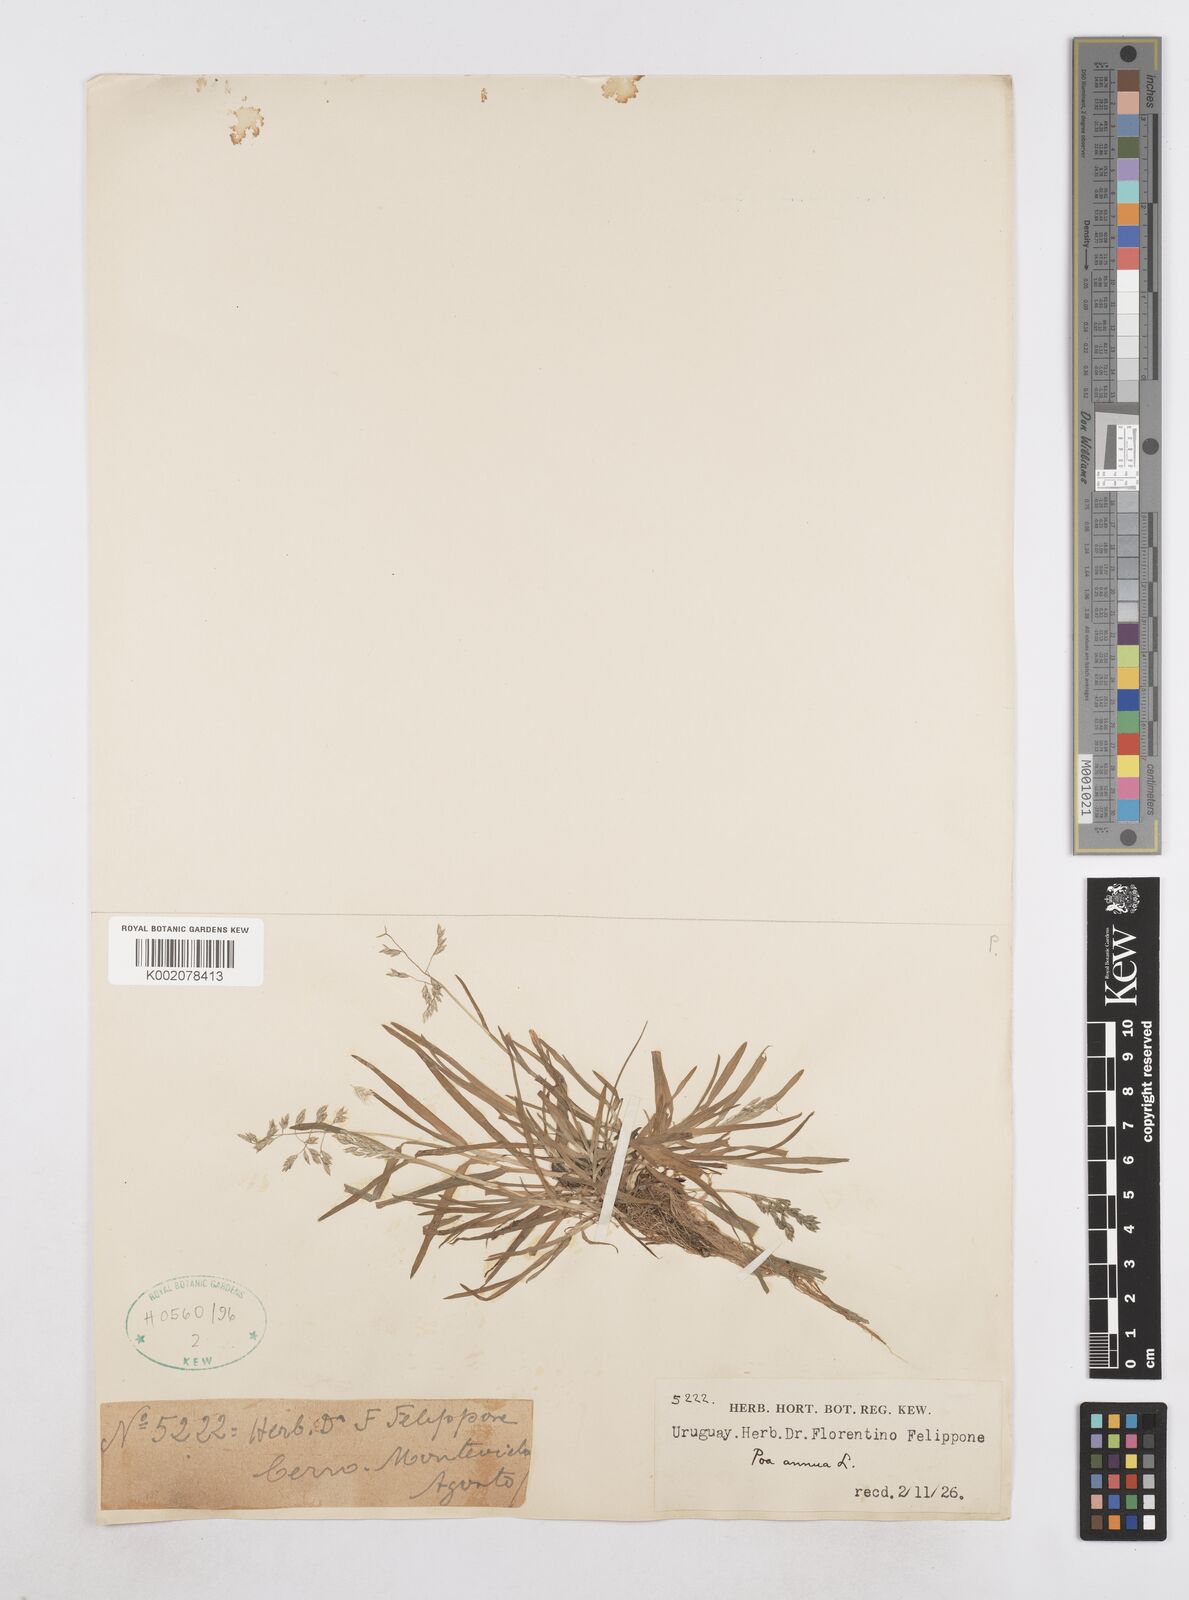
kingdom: Plantae
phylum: Tracheophyta
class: Liliopsida
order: Poales
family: Poaceae
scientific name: Poaceae
